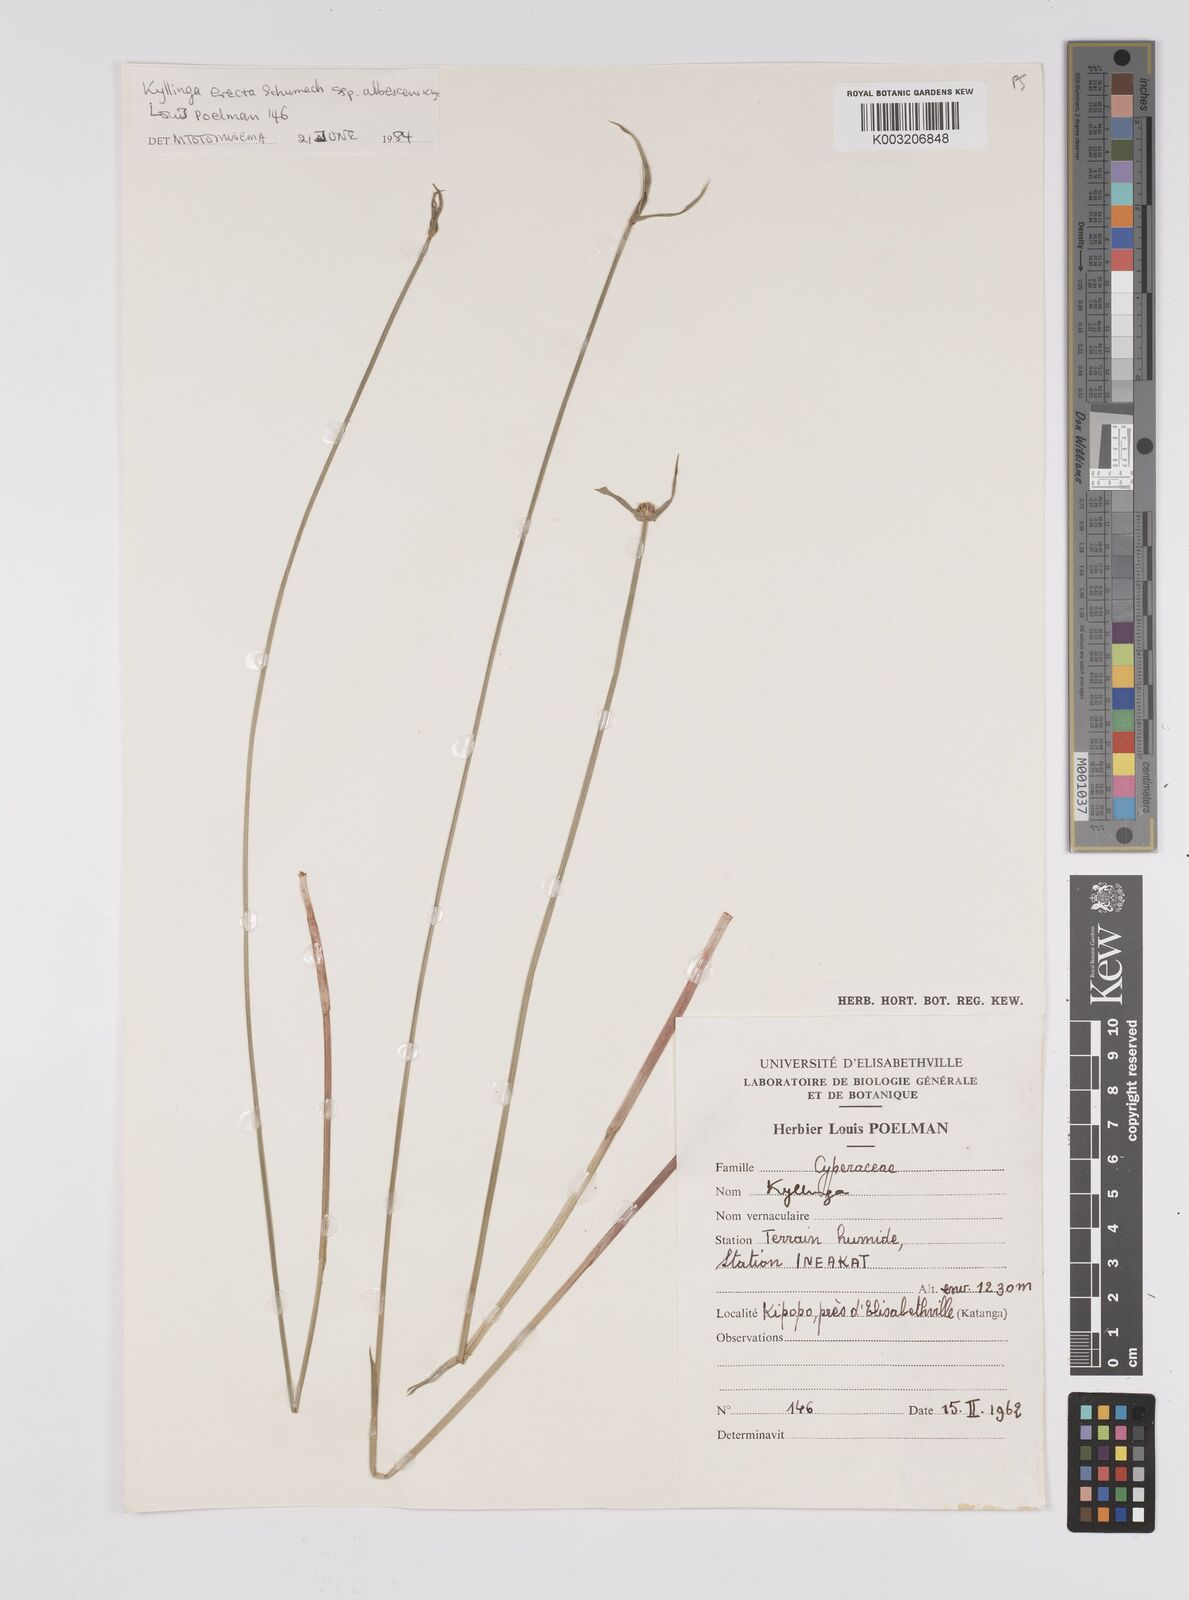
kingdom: Plantae
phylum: Tracheophyta
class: Liliopsida
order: Poales
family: Cyperaceae
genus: Cyperus
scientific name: Cyperus erectus
